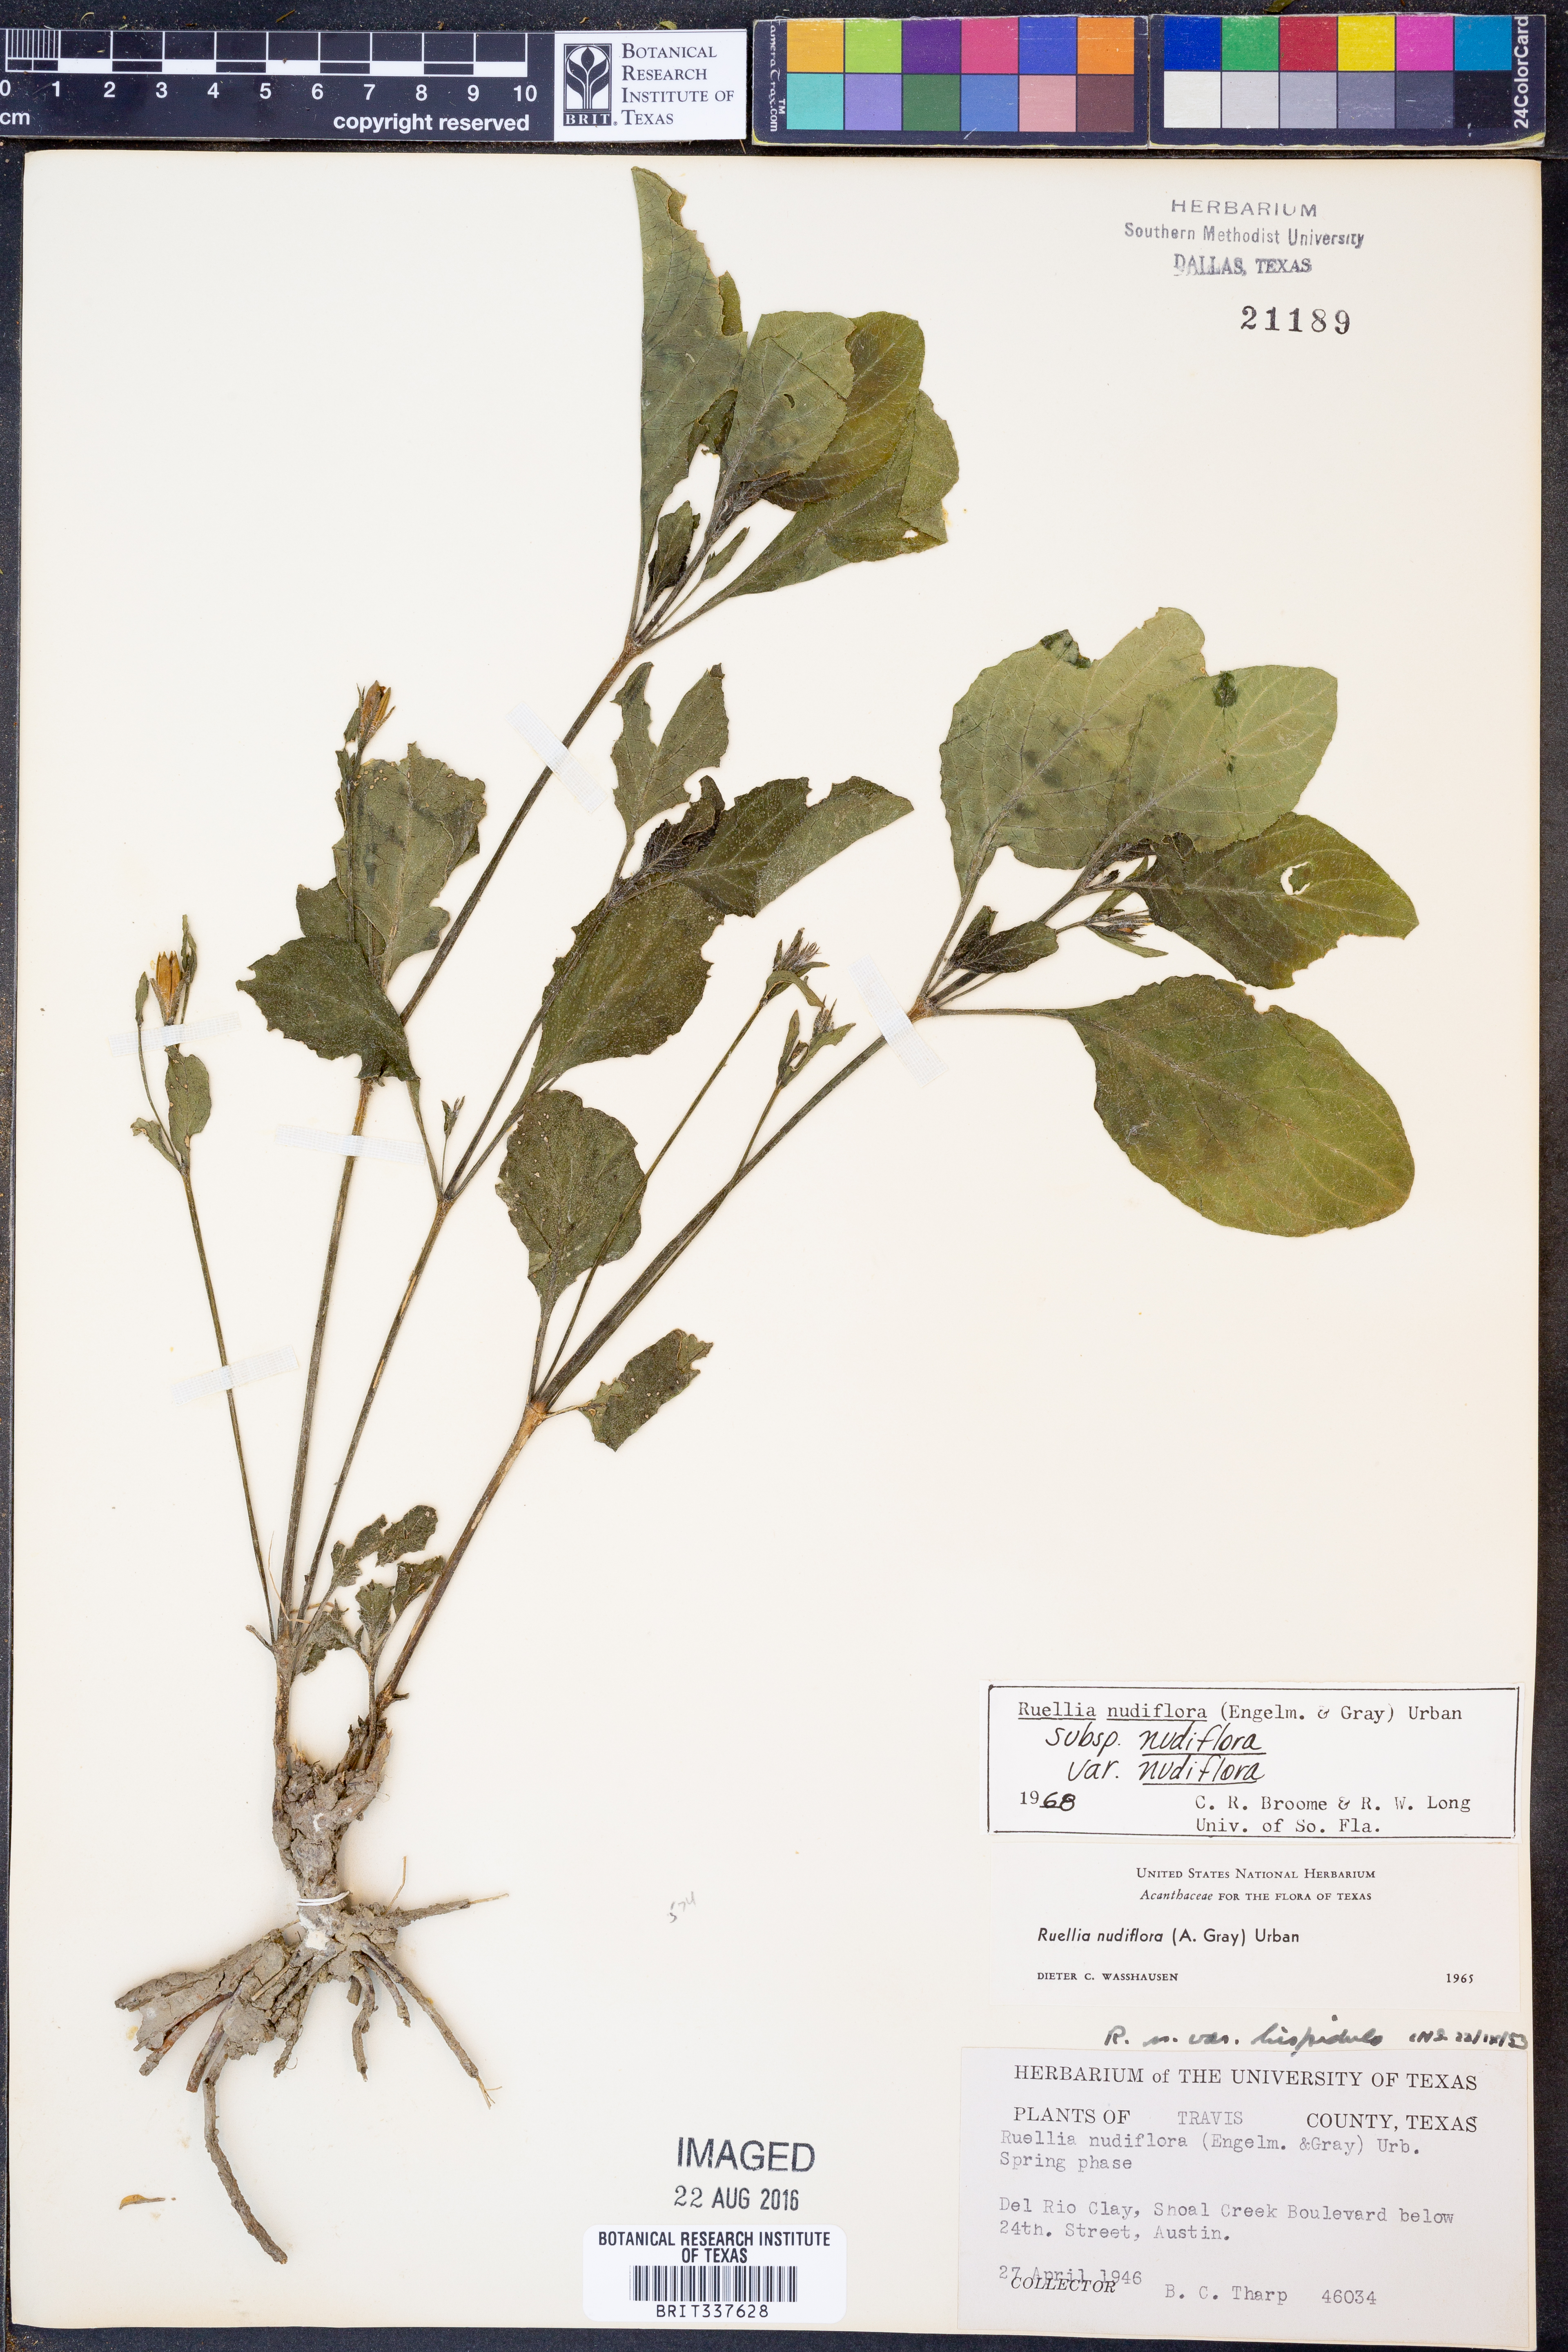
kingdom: Plantae
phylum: Tracheophyta
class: Magnoliopsida
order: Lamiales
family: Acanthaceae
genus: Ruellia
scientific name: Ruellia ciliatiflora
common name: Hairyflower wild petunia
